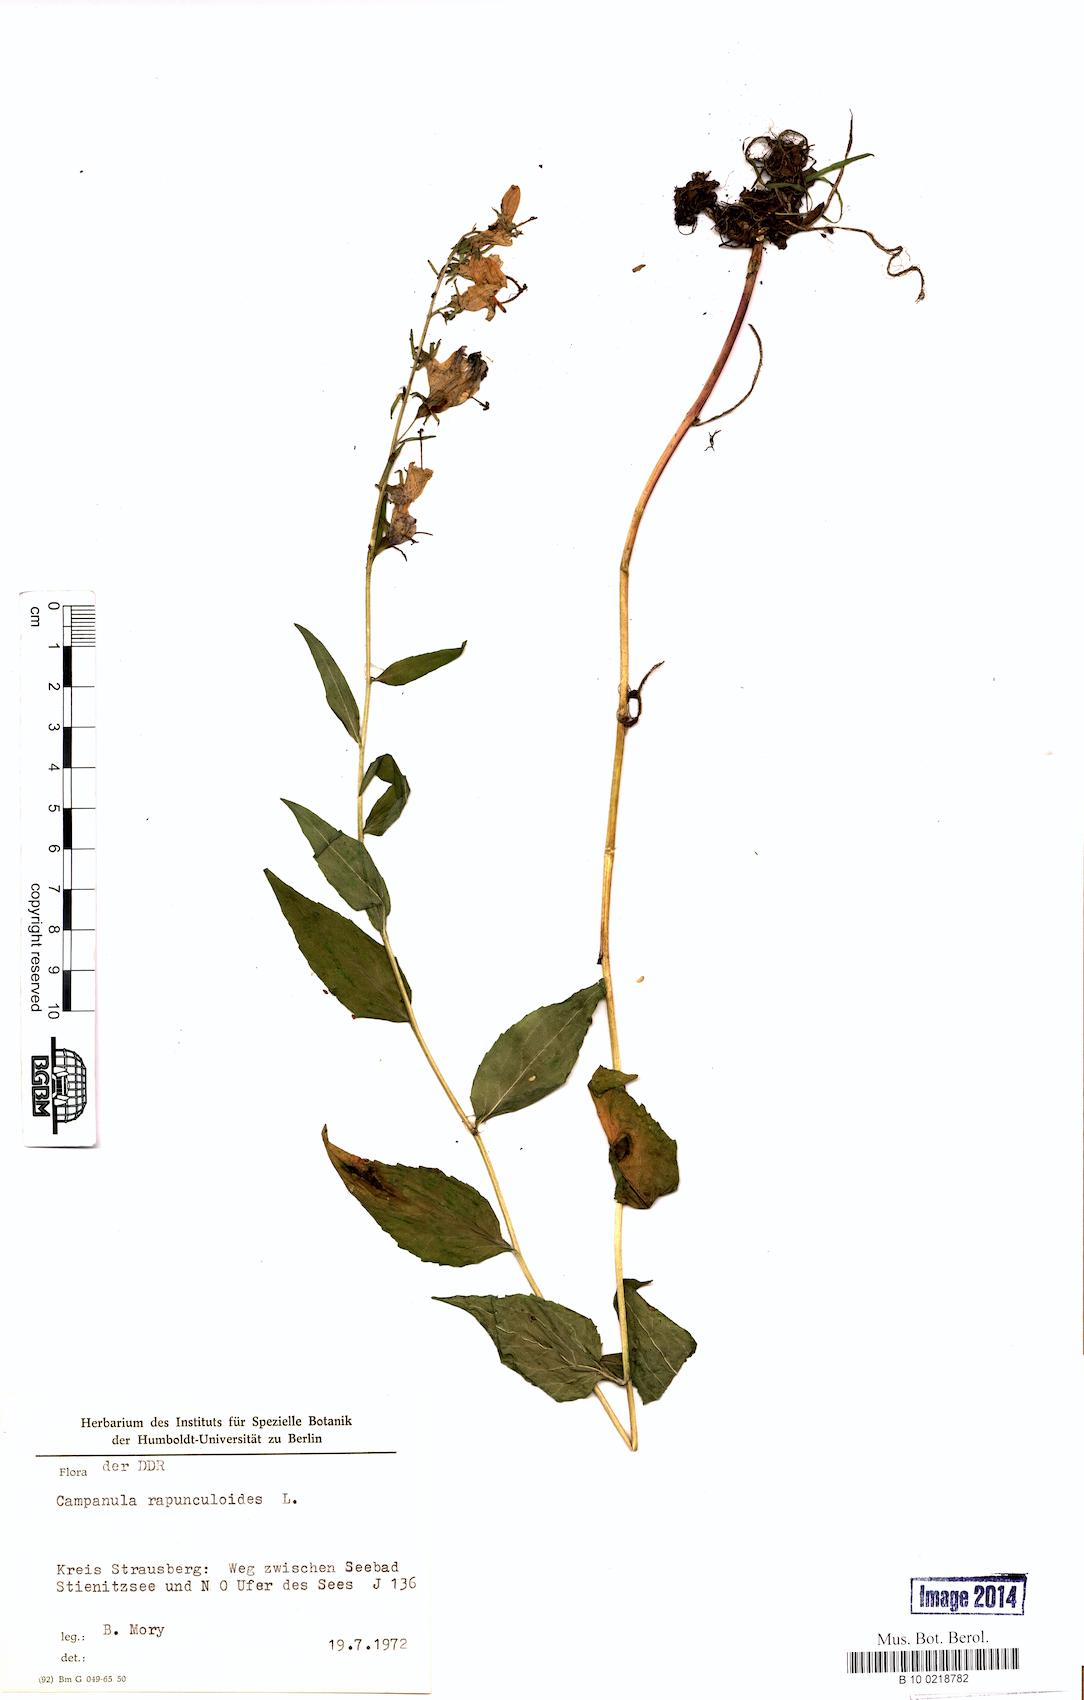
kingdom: Plantae
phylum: Tracheophyta
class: Magnoliopsida
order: Asterales
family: Campanulaceae
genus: Campanula
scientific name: Campanula rapunculoides
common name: Creeping bellflower
